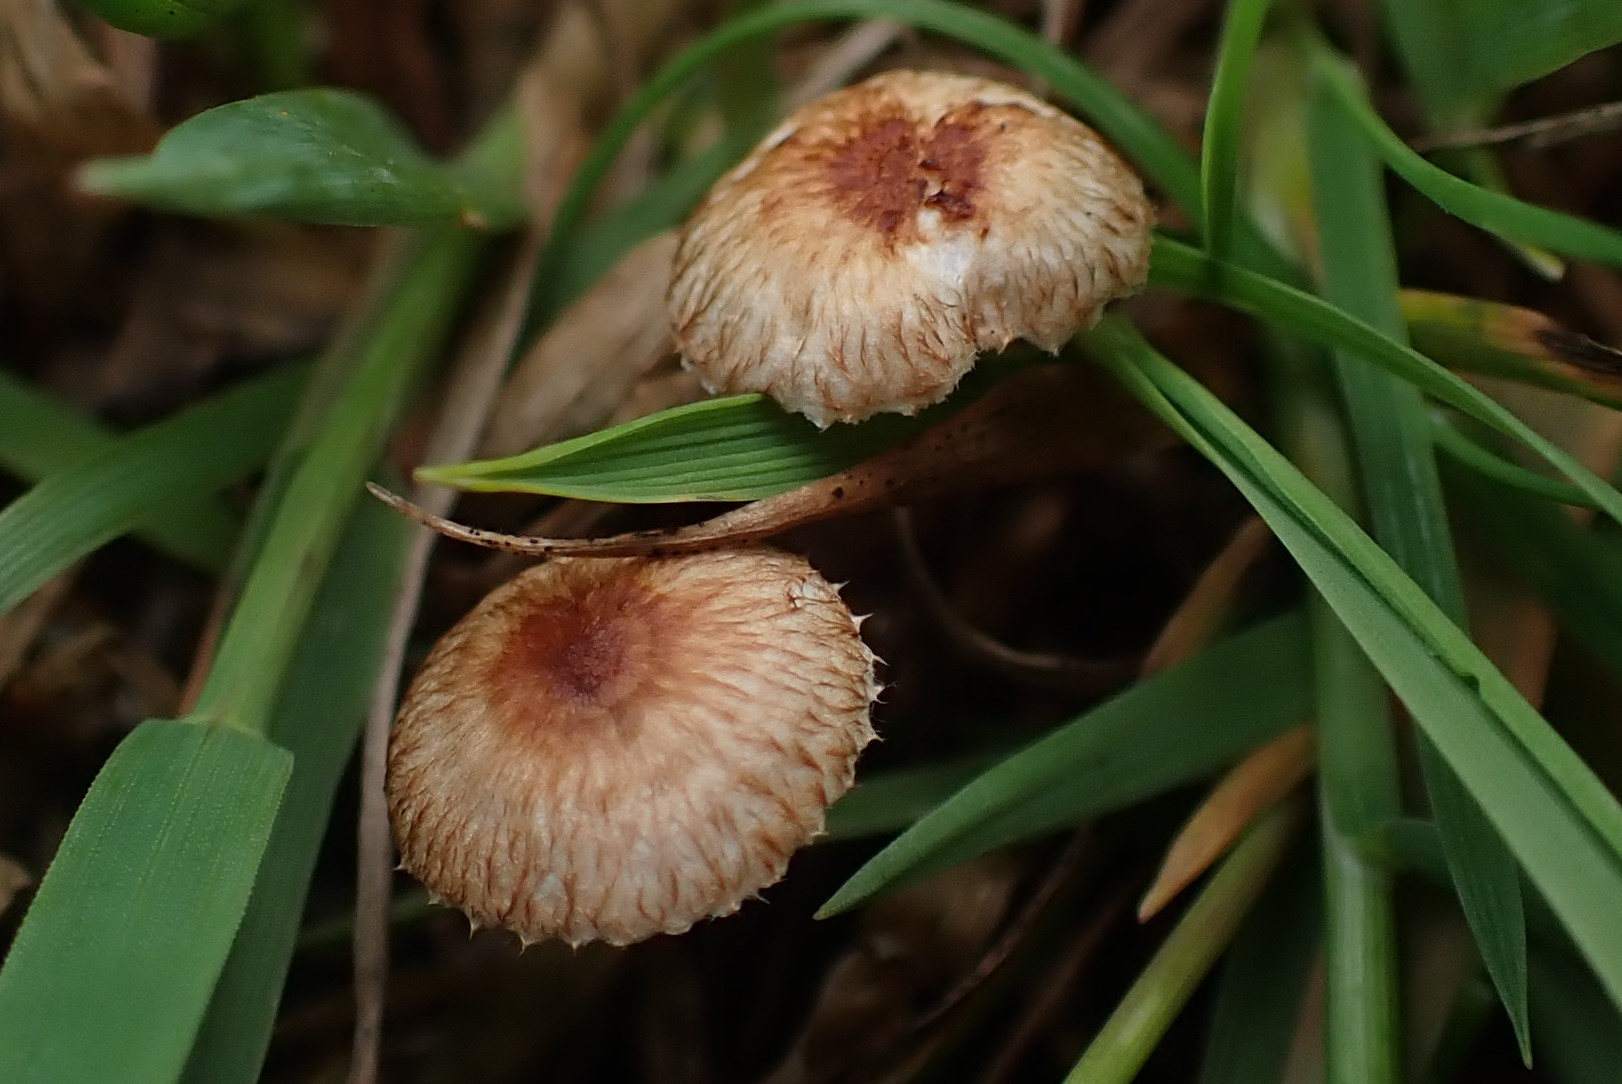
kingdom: Fungi
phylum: Basidiomycota
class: Agaricomycetes
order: Agaricales
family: Marasmiaceae
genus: Crinipellis
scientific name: Crinipellis scabella
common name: børstefod
